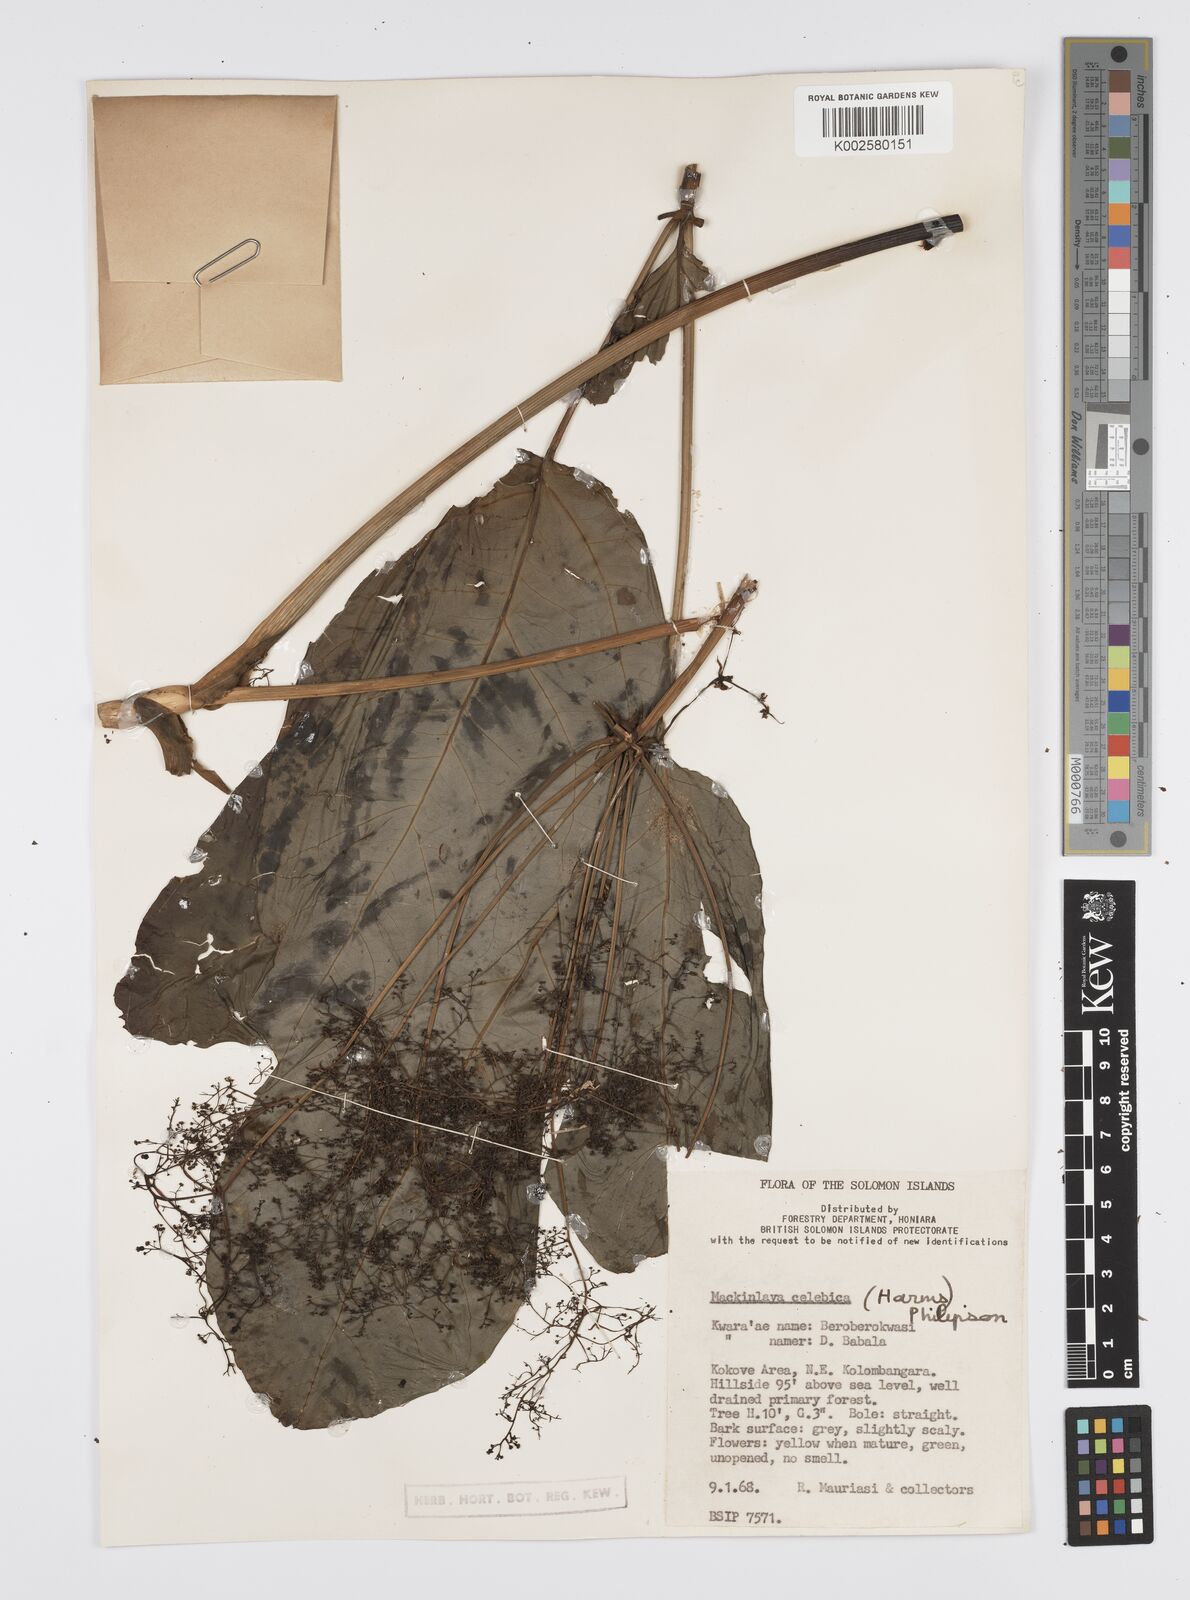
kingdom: Plantae
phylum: Tracheophyta
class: Magnoliopsida
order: Apiales
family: Apiaceae
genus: Mackinlaya
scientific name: Mackinlaya celebica
